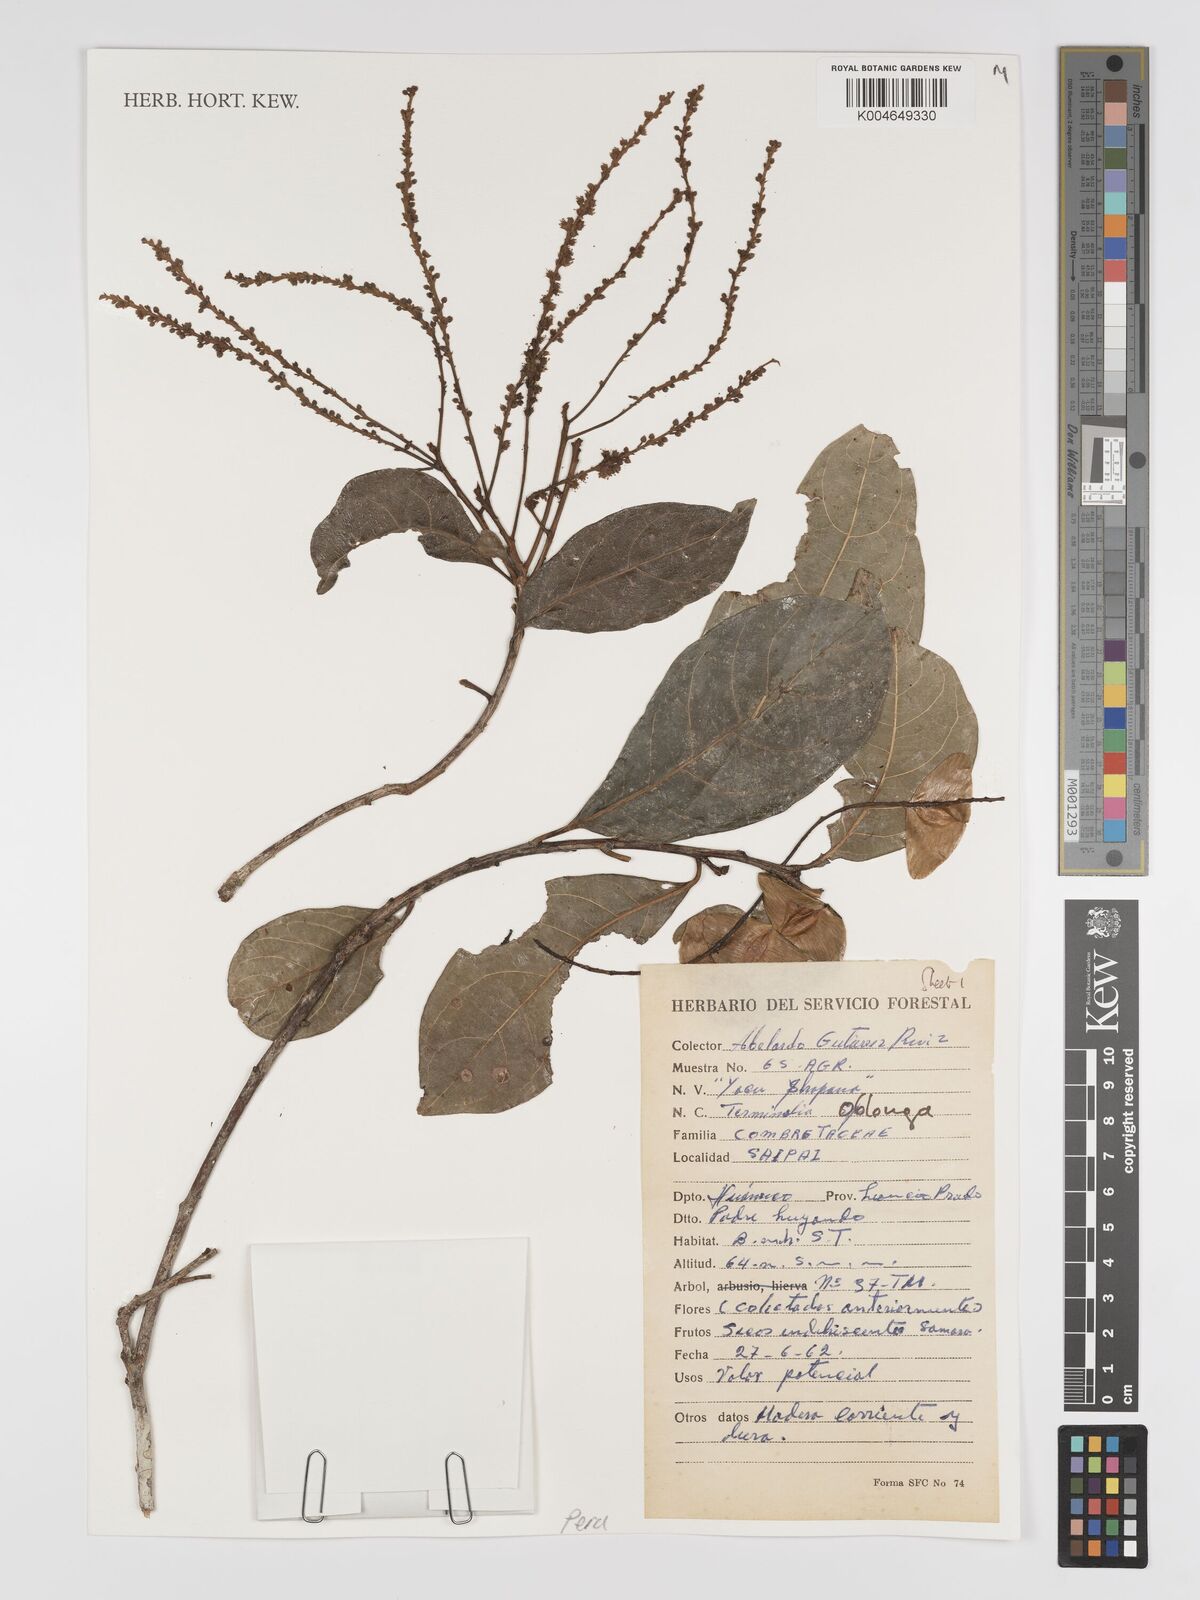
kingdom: Plantae
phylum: Tracheophyta
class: Magnoliopsida
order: Myrtales
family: Combretaceae
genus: Terminalia
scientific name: Terminalia oblonga
